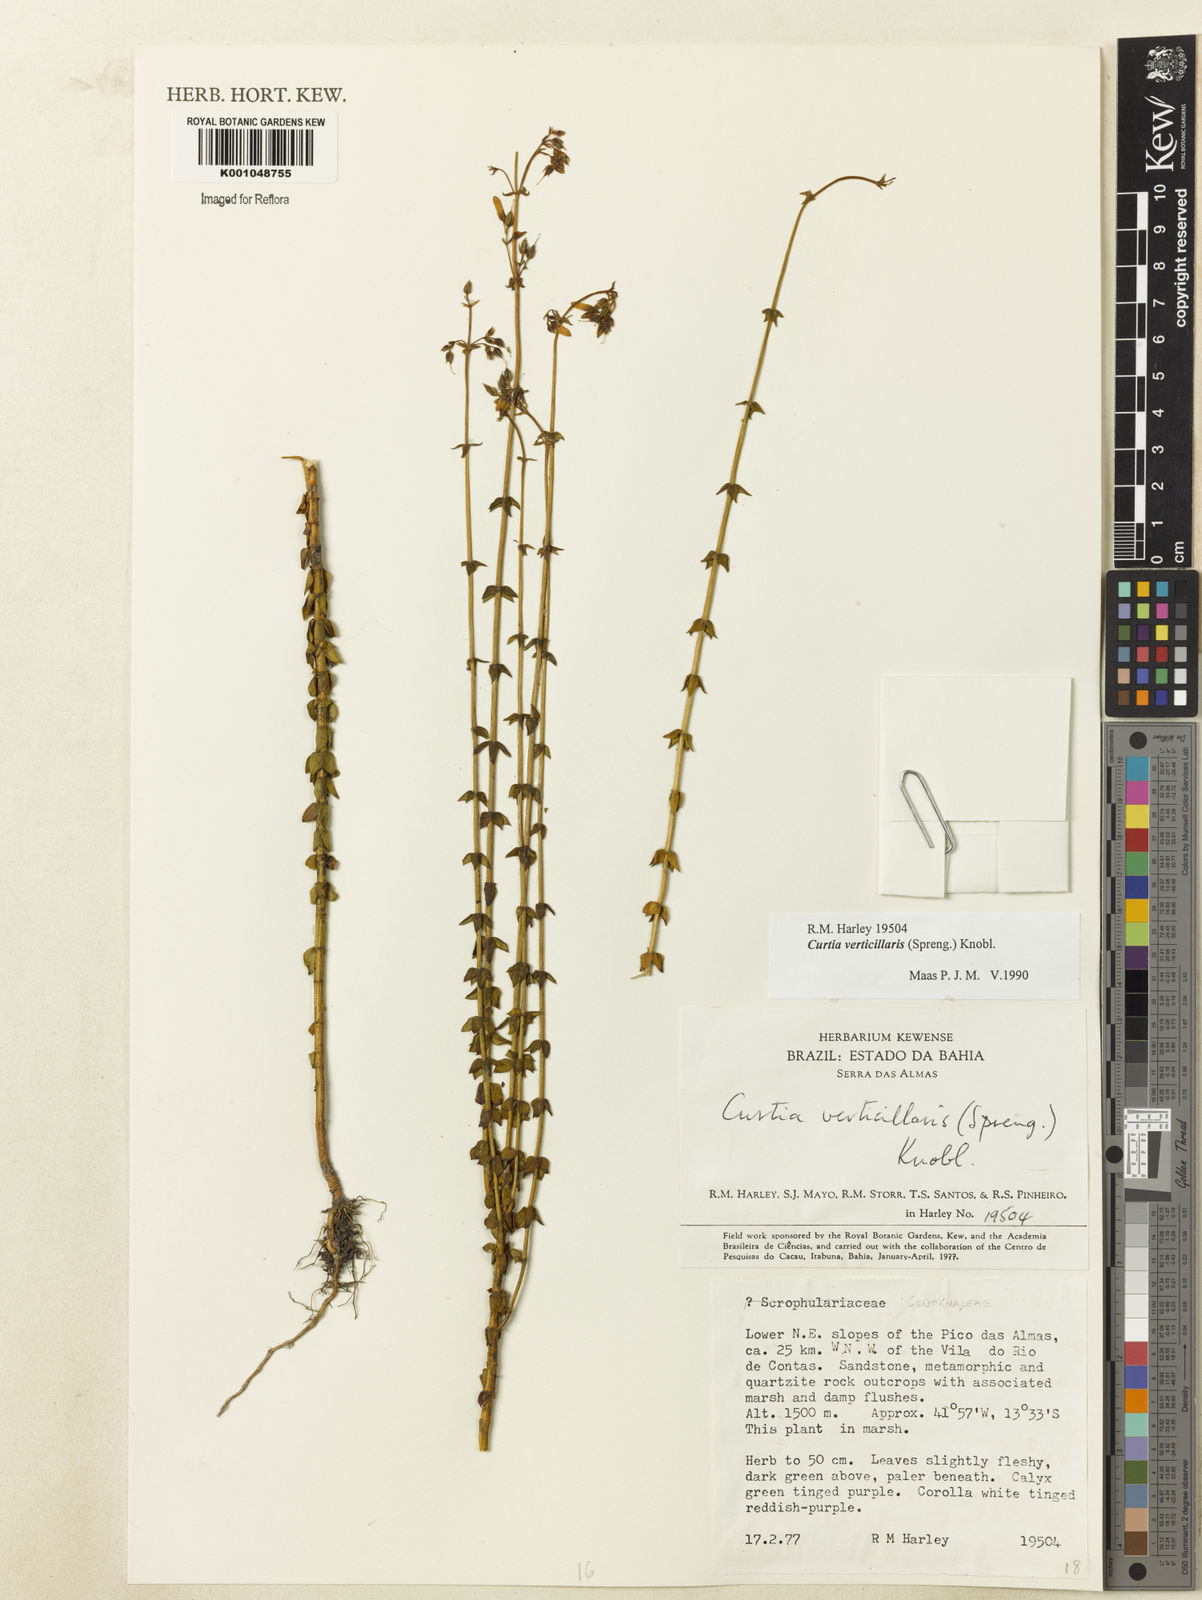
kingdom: Plantae
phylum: Tracheophyta
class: Magnoliopsida
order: Gentianales
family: Gentianaceae
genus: Curtia
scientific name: Curtia verticillaris
